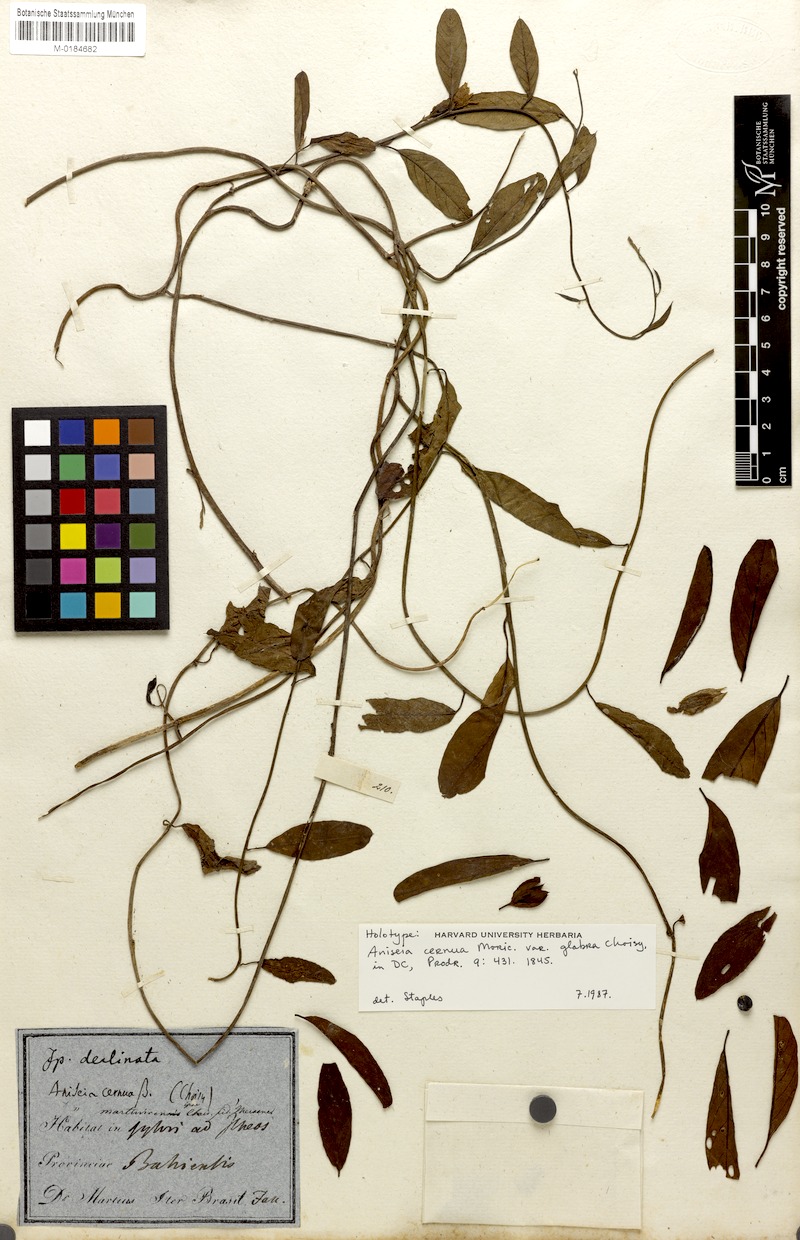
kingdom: Plantae
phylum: Tracheophyta
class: Magnoliopsida
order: Solanales
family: Convolvulaceae
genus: Aniseia
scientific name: Aniseia cernua
